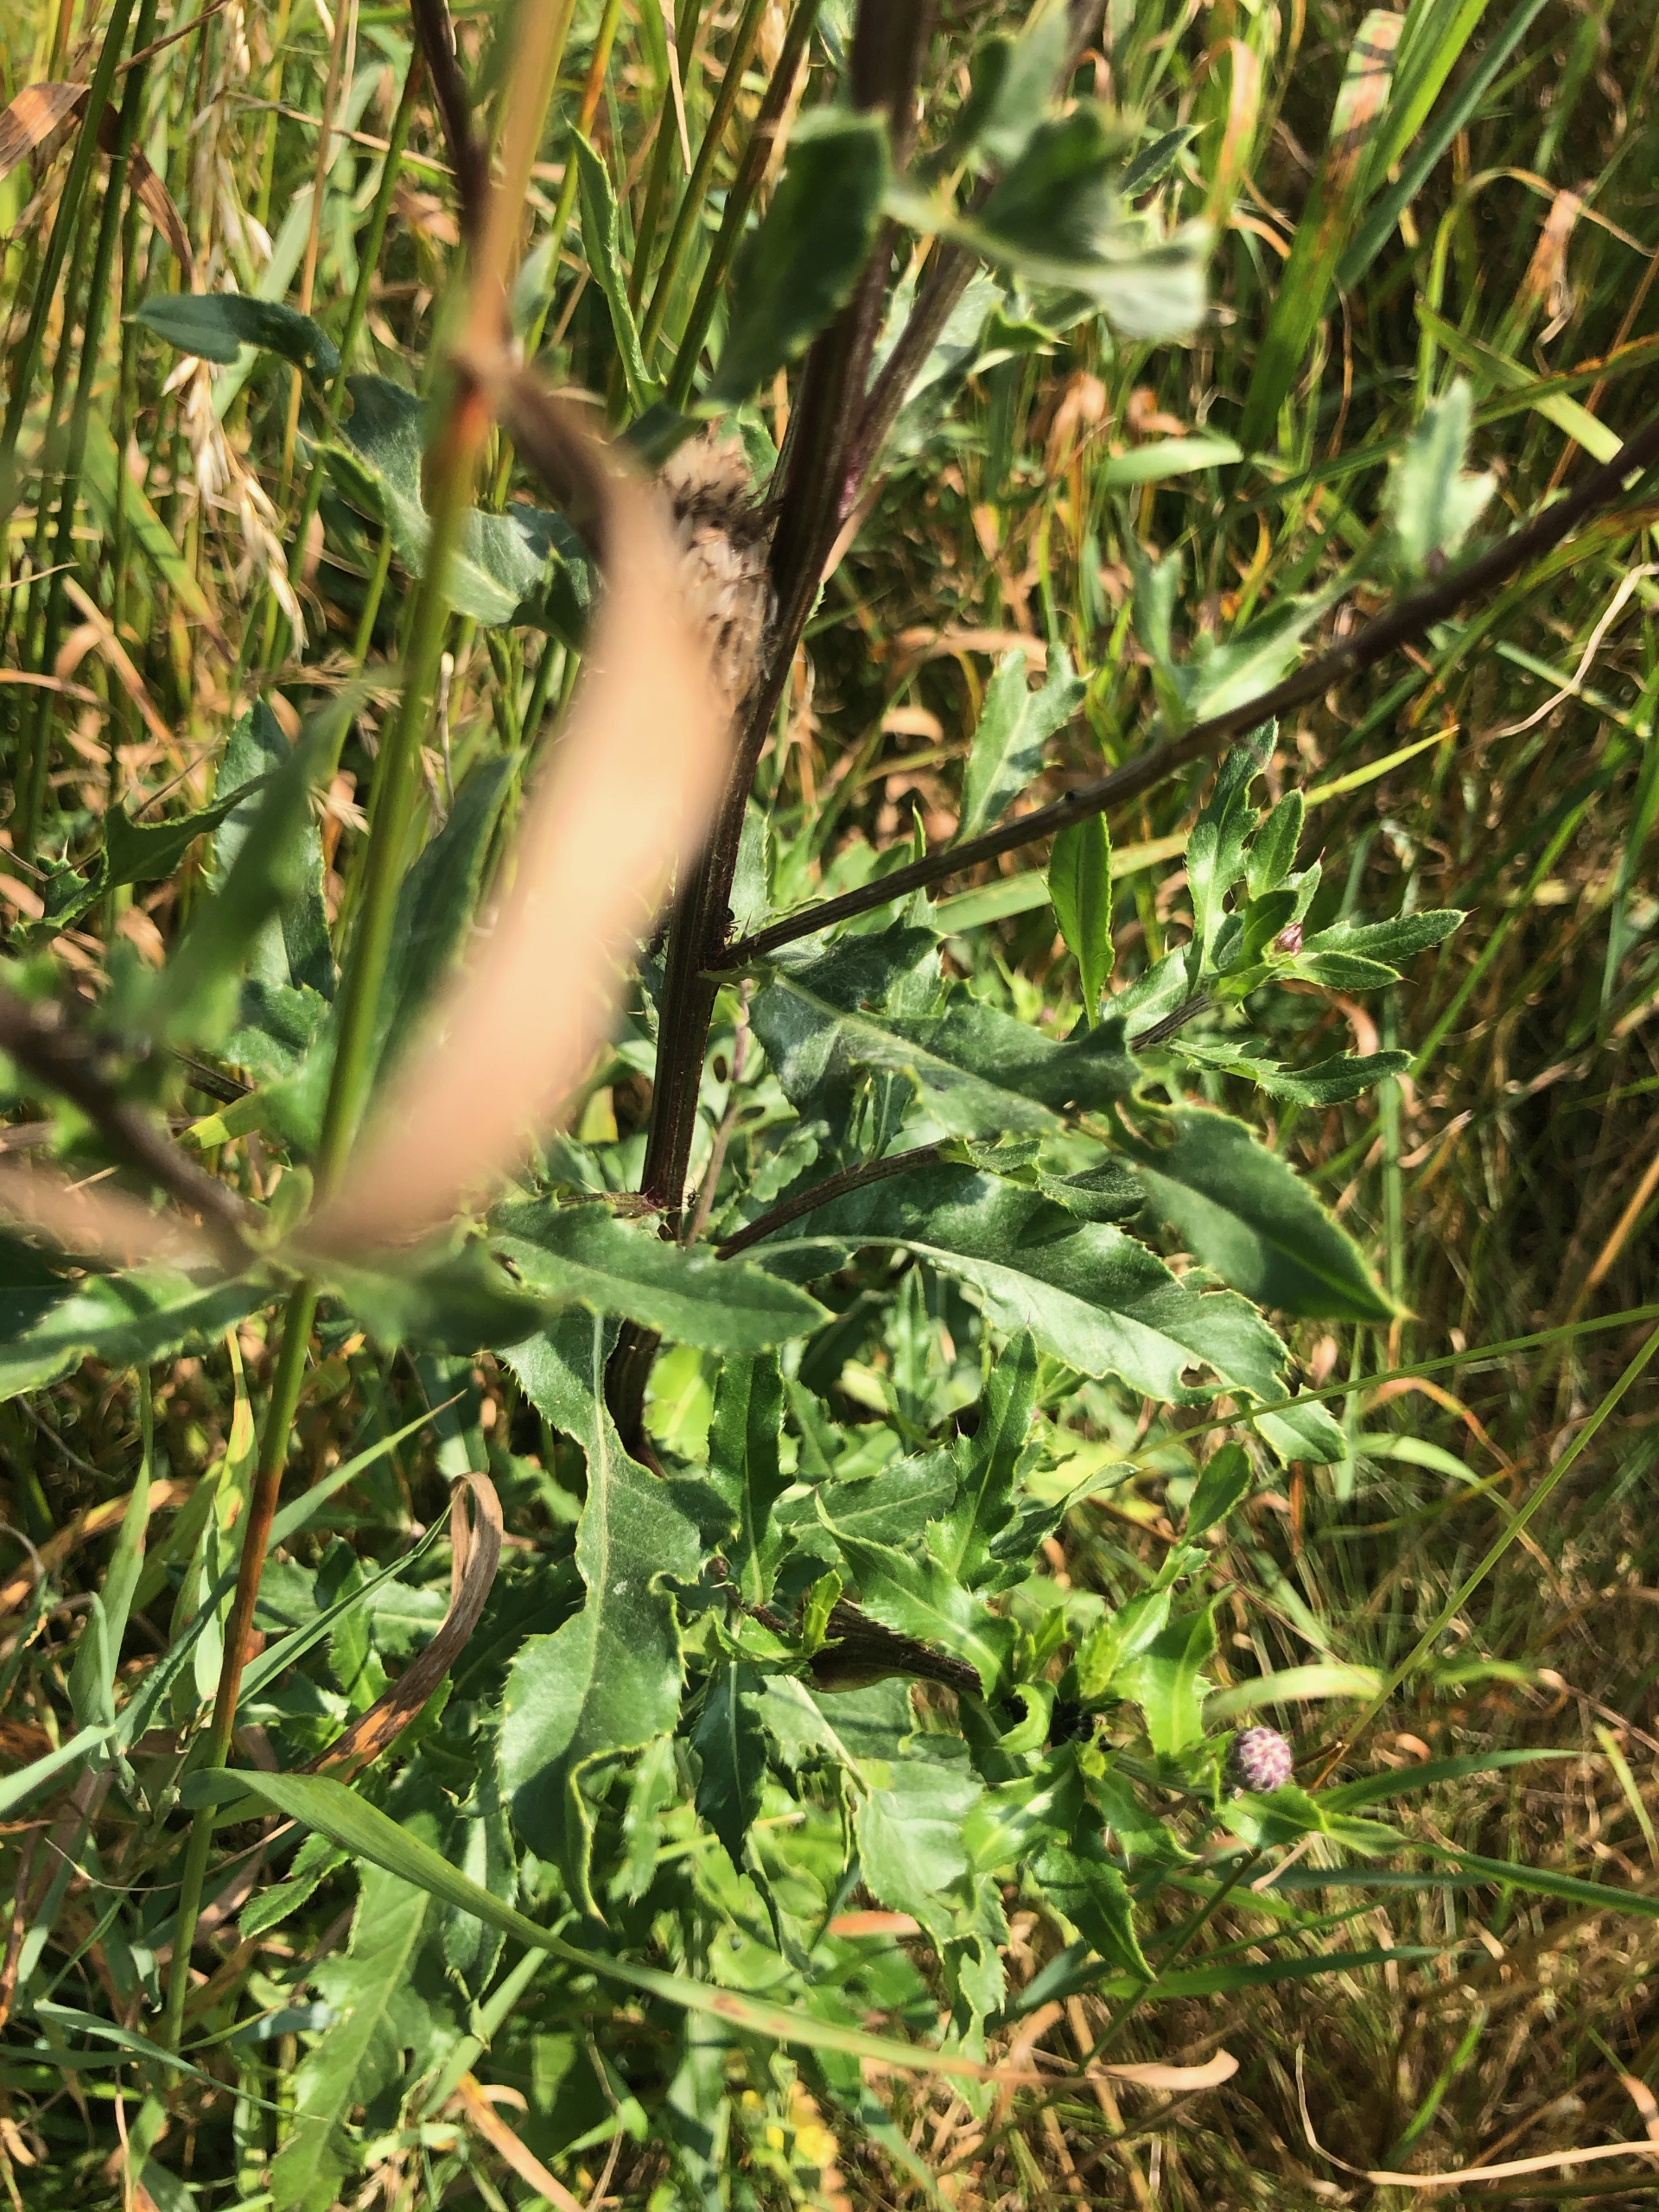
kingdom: Plantae
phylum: Tracheophyta
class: Magnoliopsida
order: Asterales
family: Asteraceae
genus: Cirsium
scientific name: Cirsium arvense
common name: Ager-tidsel
